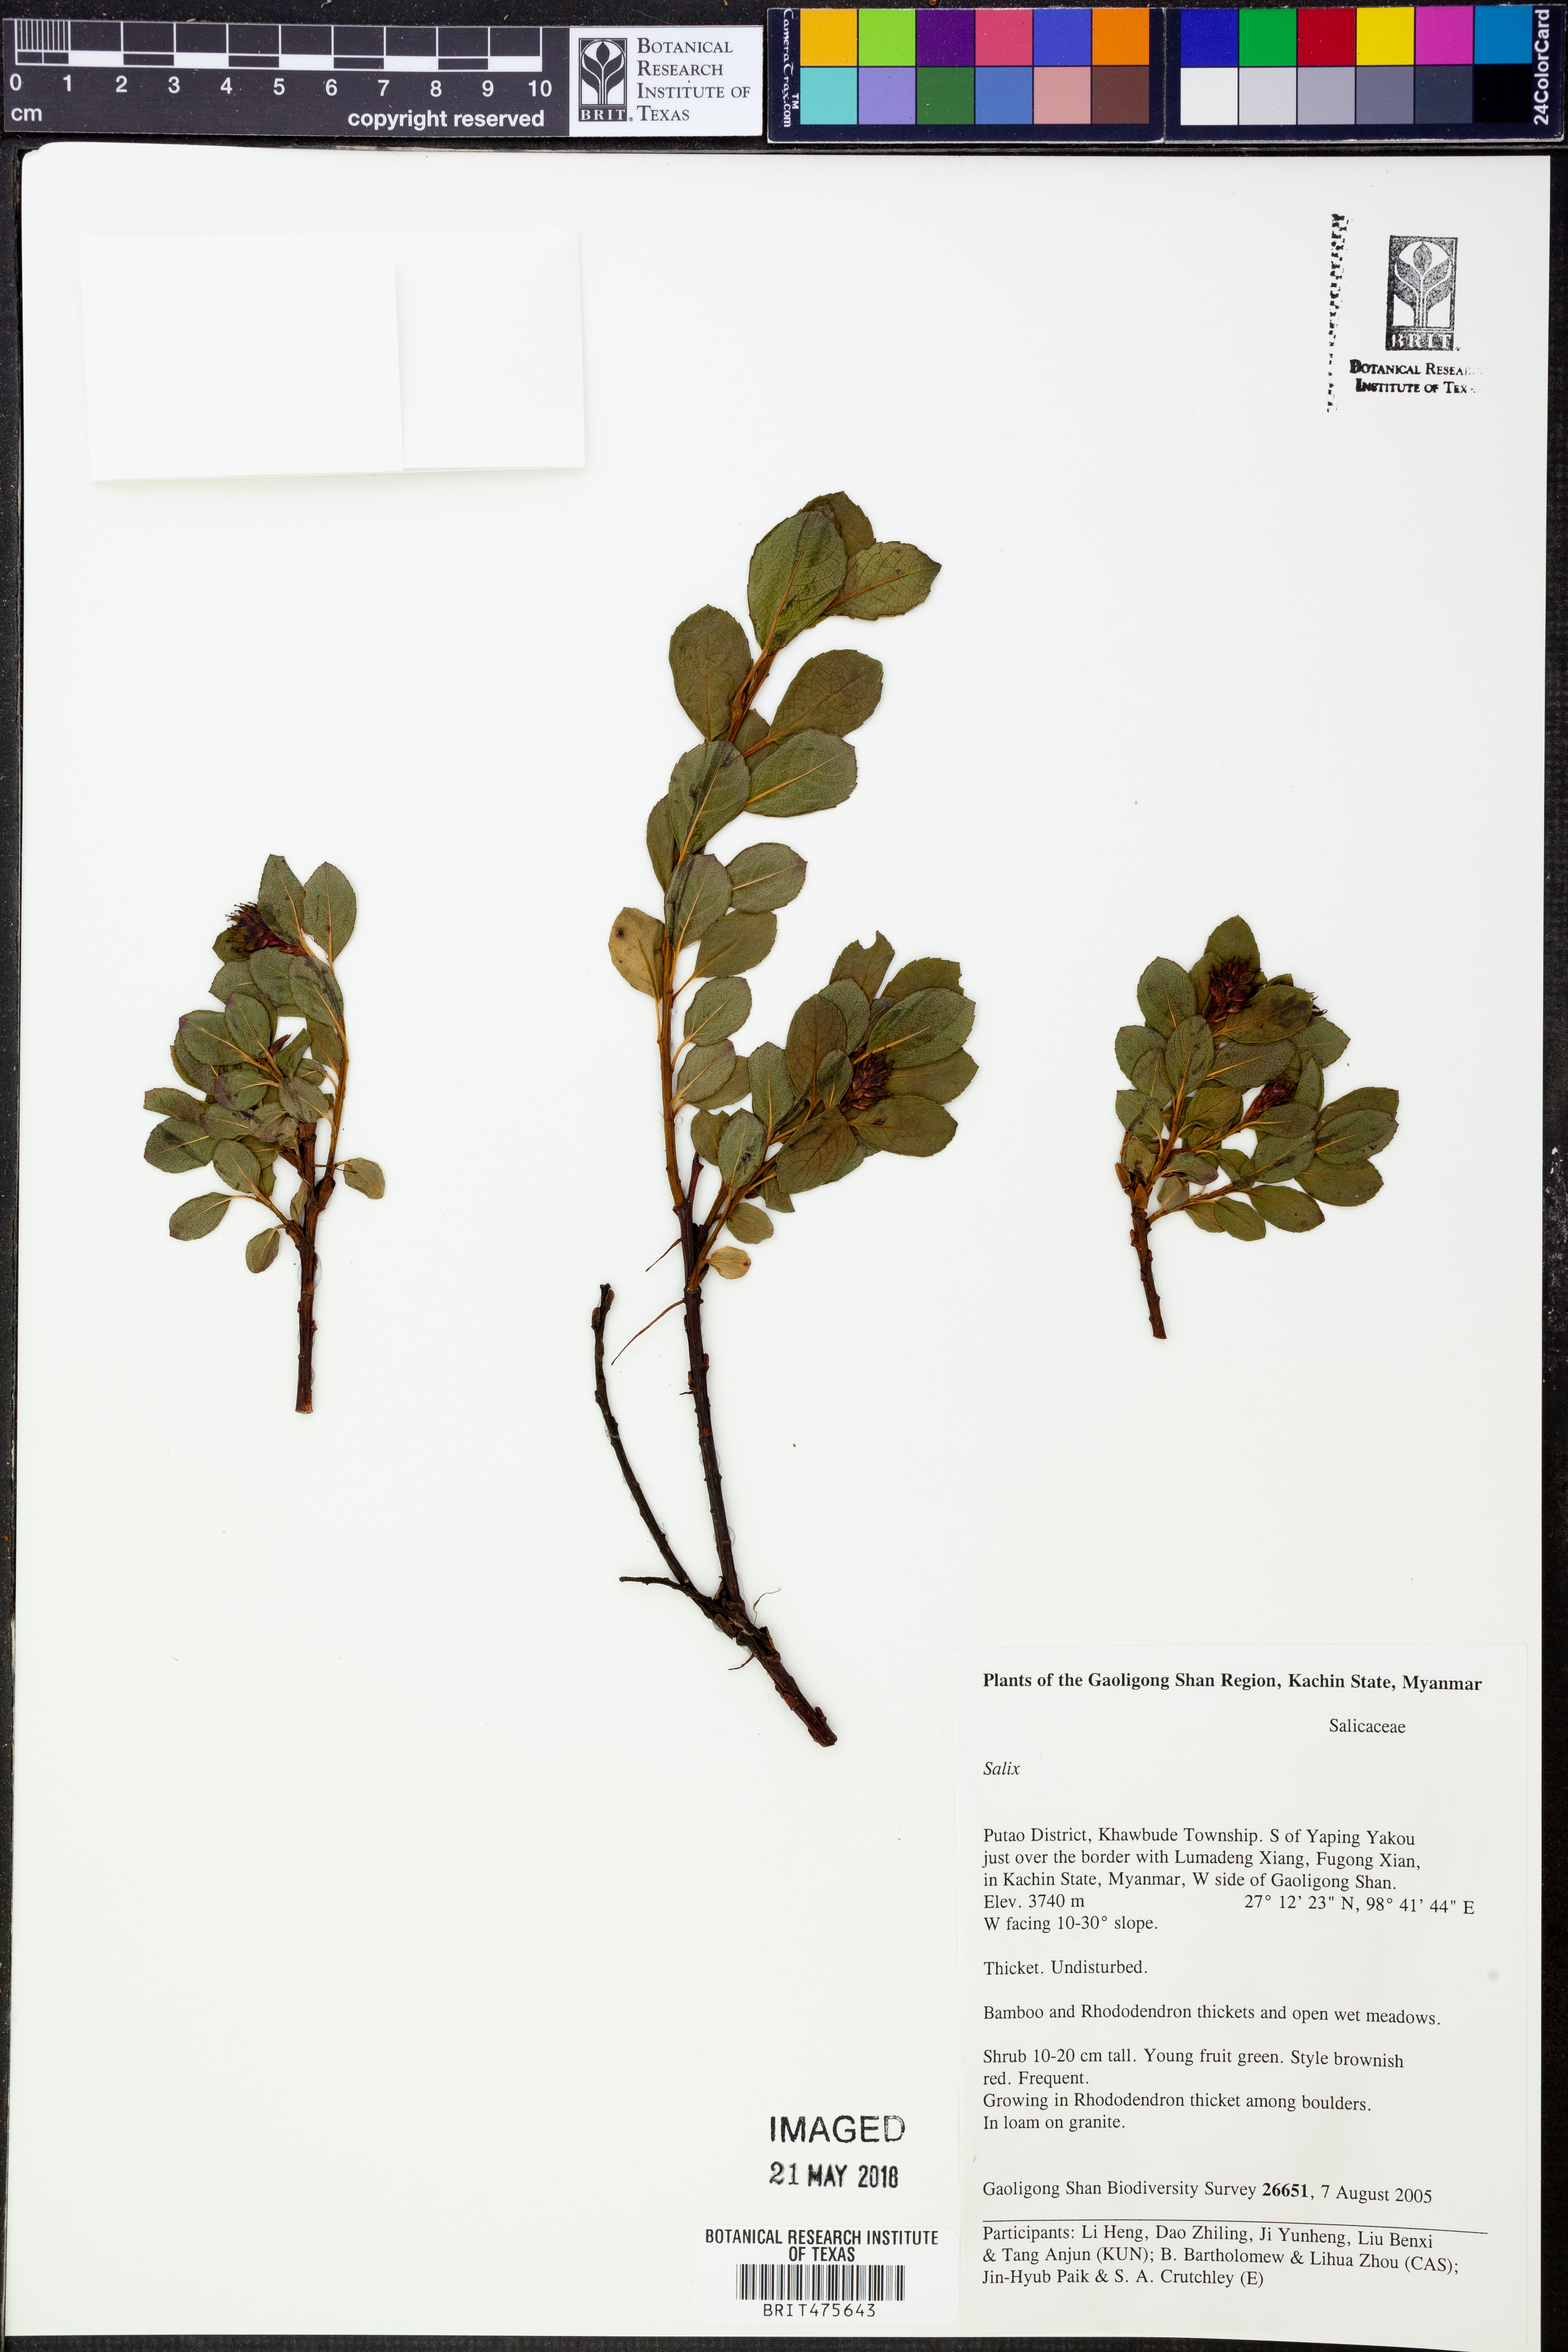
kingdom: Plantae
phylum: Tracheophyta
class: Magnoliopsida
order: Malpighiales
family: Salicaceae
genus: Salix
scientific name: Salix
